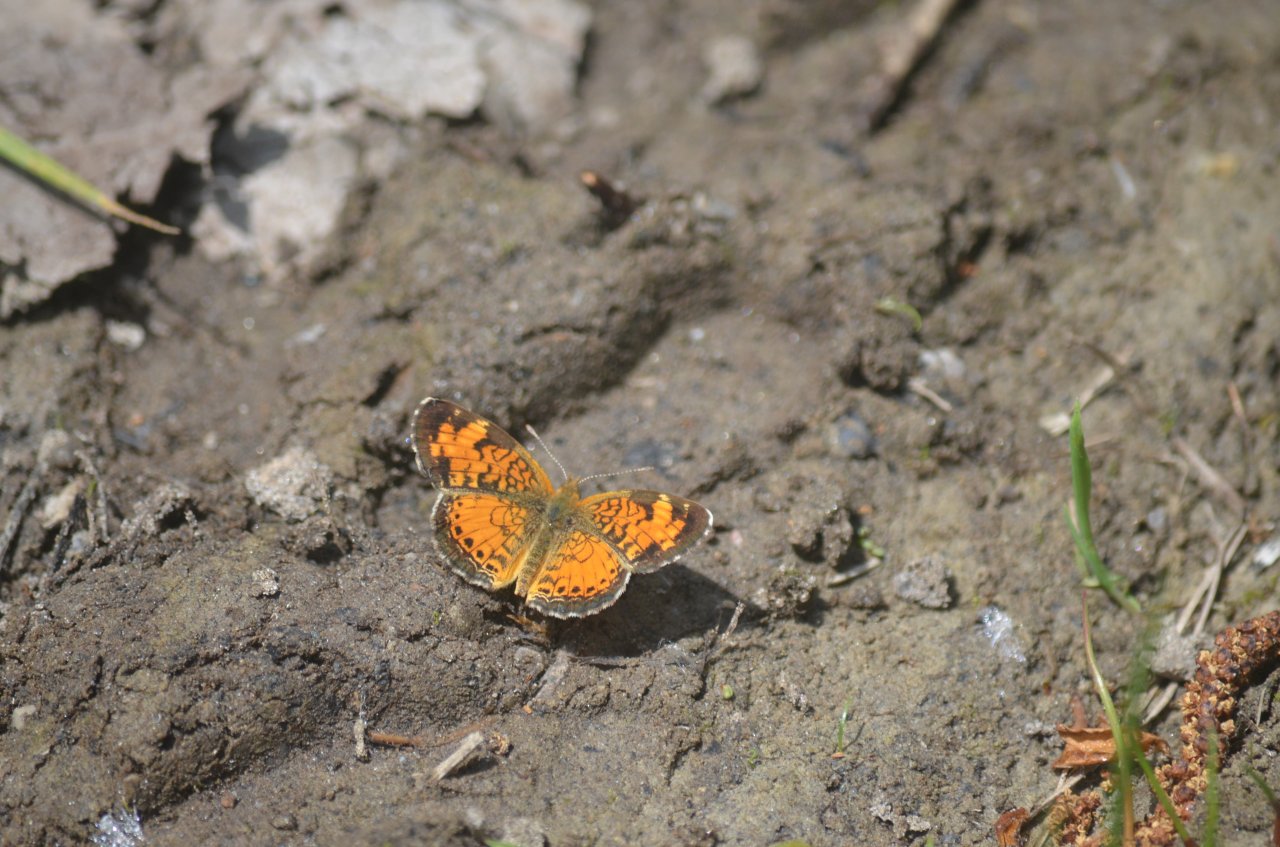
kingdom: Animalia
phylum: Arthropoda
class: Insecta
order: Lepidoptera
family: Nymphalidae
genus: Phyciodes
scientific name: Phyciodes
